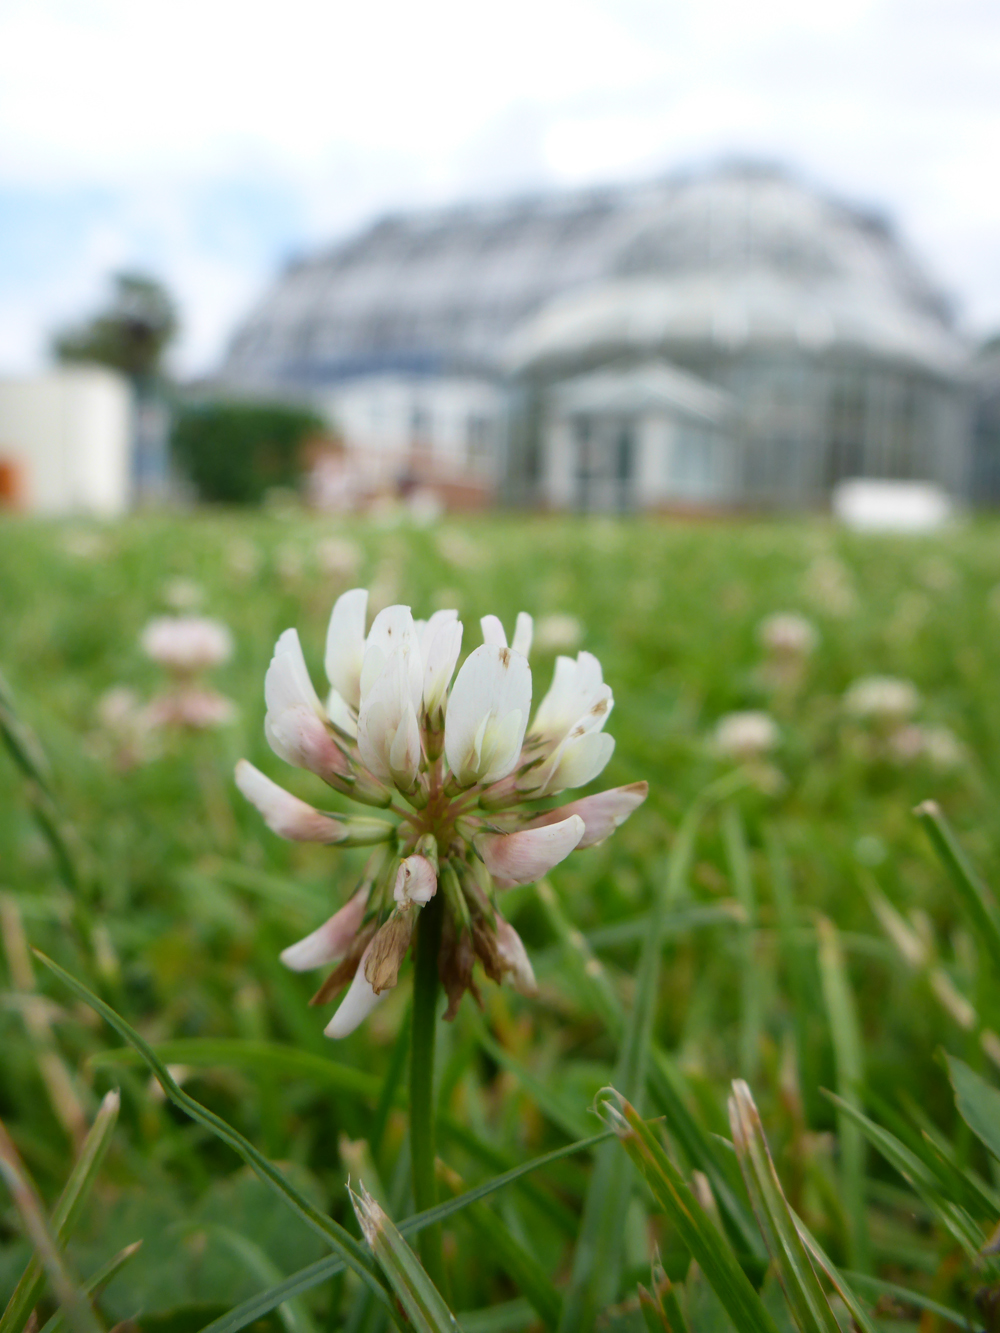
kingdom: Plantae
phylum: Tracheophyta
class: Magnoliopsida
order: Fabales
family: Fabaceae
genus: Trifolium
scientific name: Trifolium repens
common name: White clover
